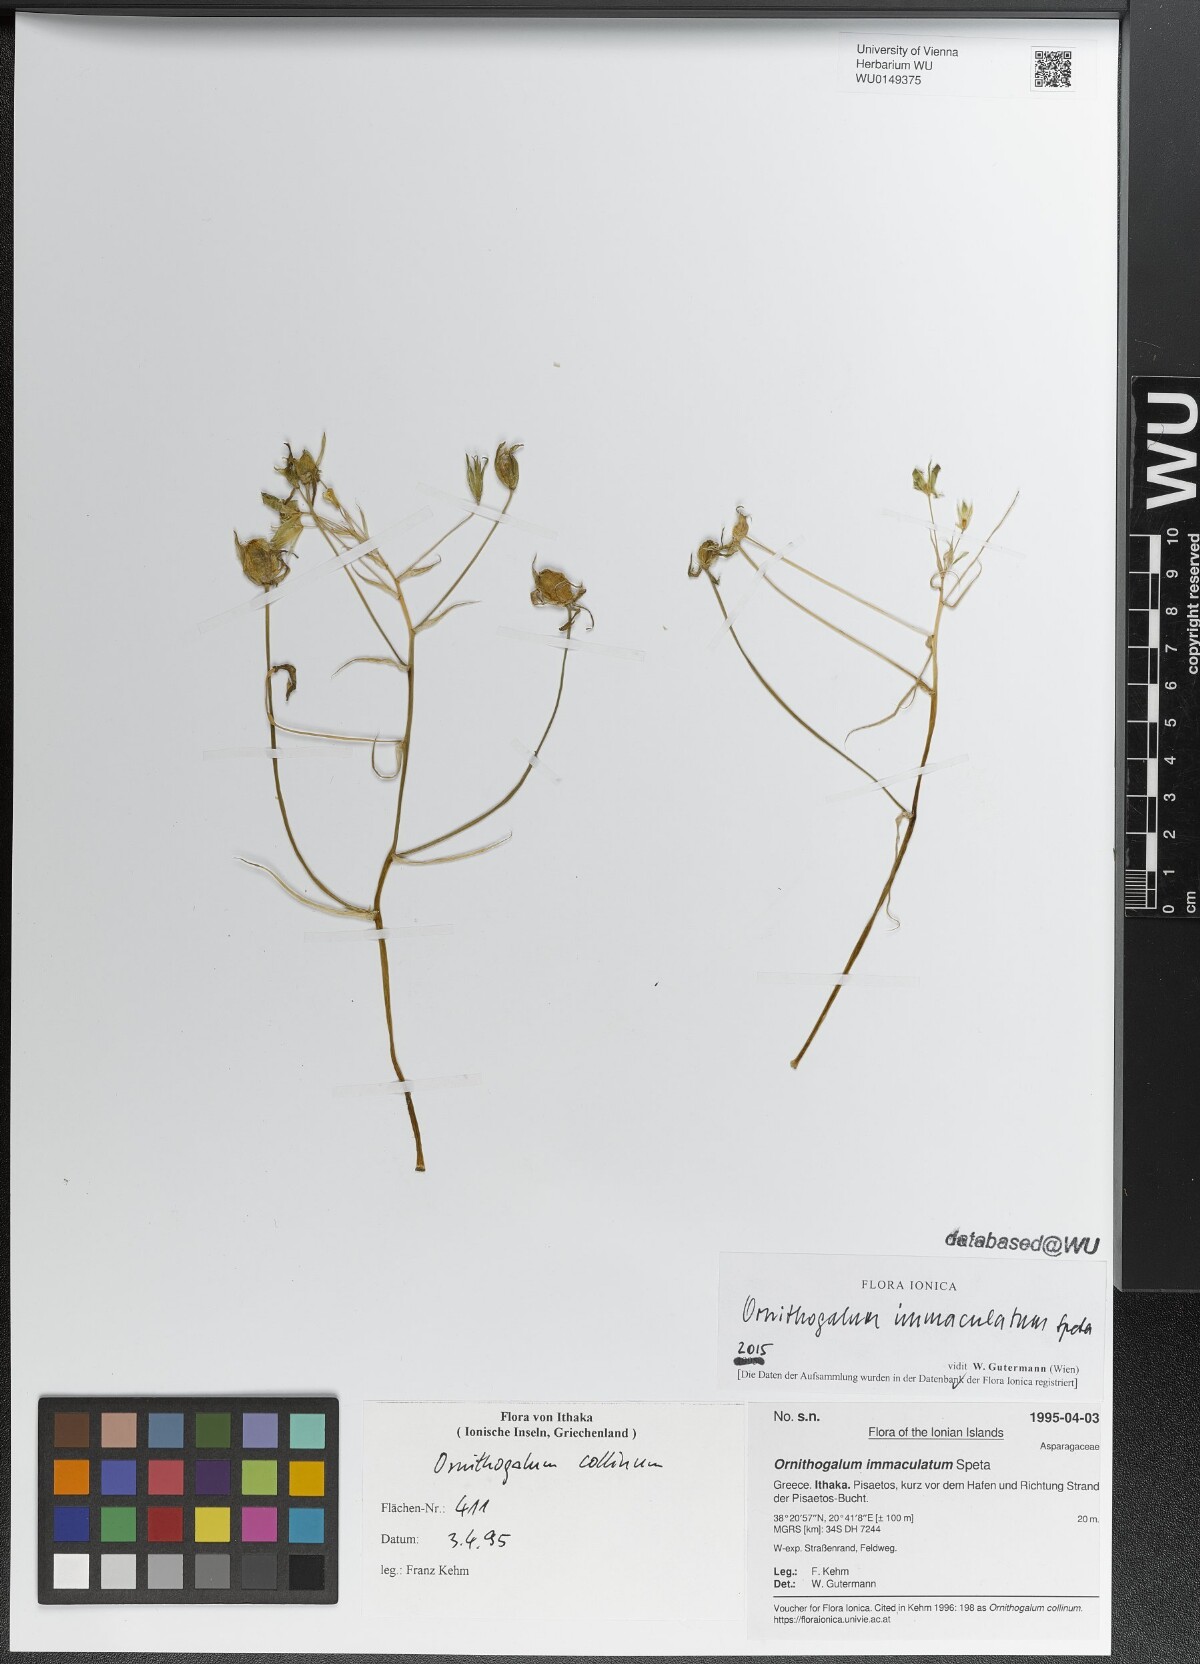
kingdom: Plantae
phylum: Tracheophyta
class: Liliopsida
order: Asparagales
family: Asparagaceae
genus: Ornithogalum
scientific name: Ornithogalum immaculatum
